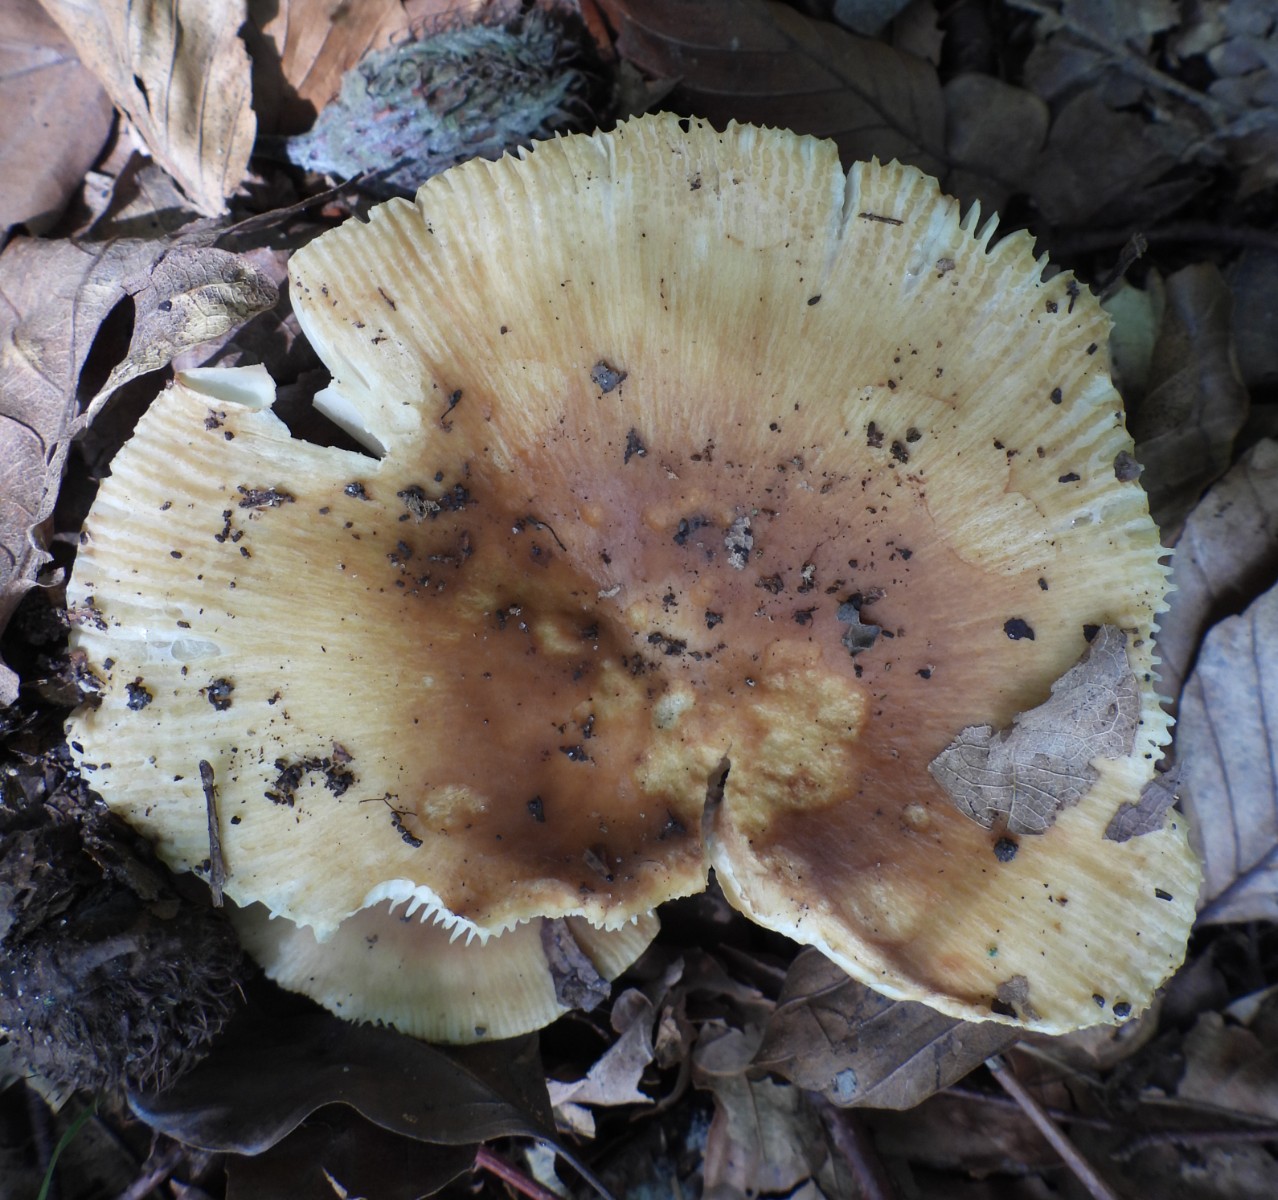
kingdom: Fungi
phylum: Basidiomycota
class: Agaricomycetes
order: Russulales
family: Russulaceae
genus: Russula
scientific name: Russula recondita
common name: mild kam-skørhat
